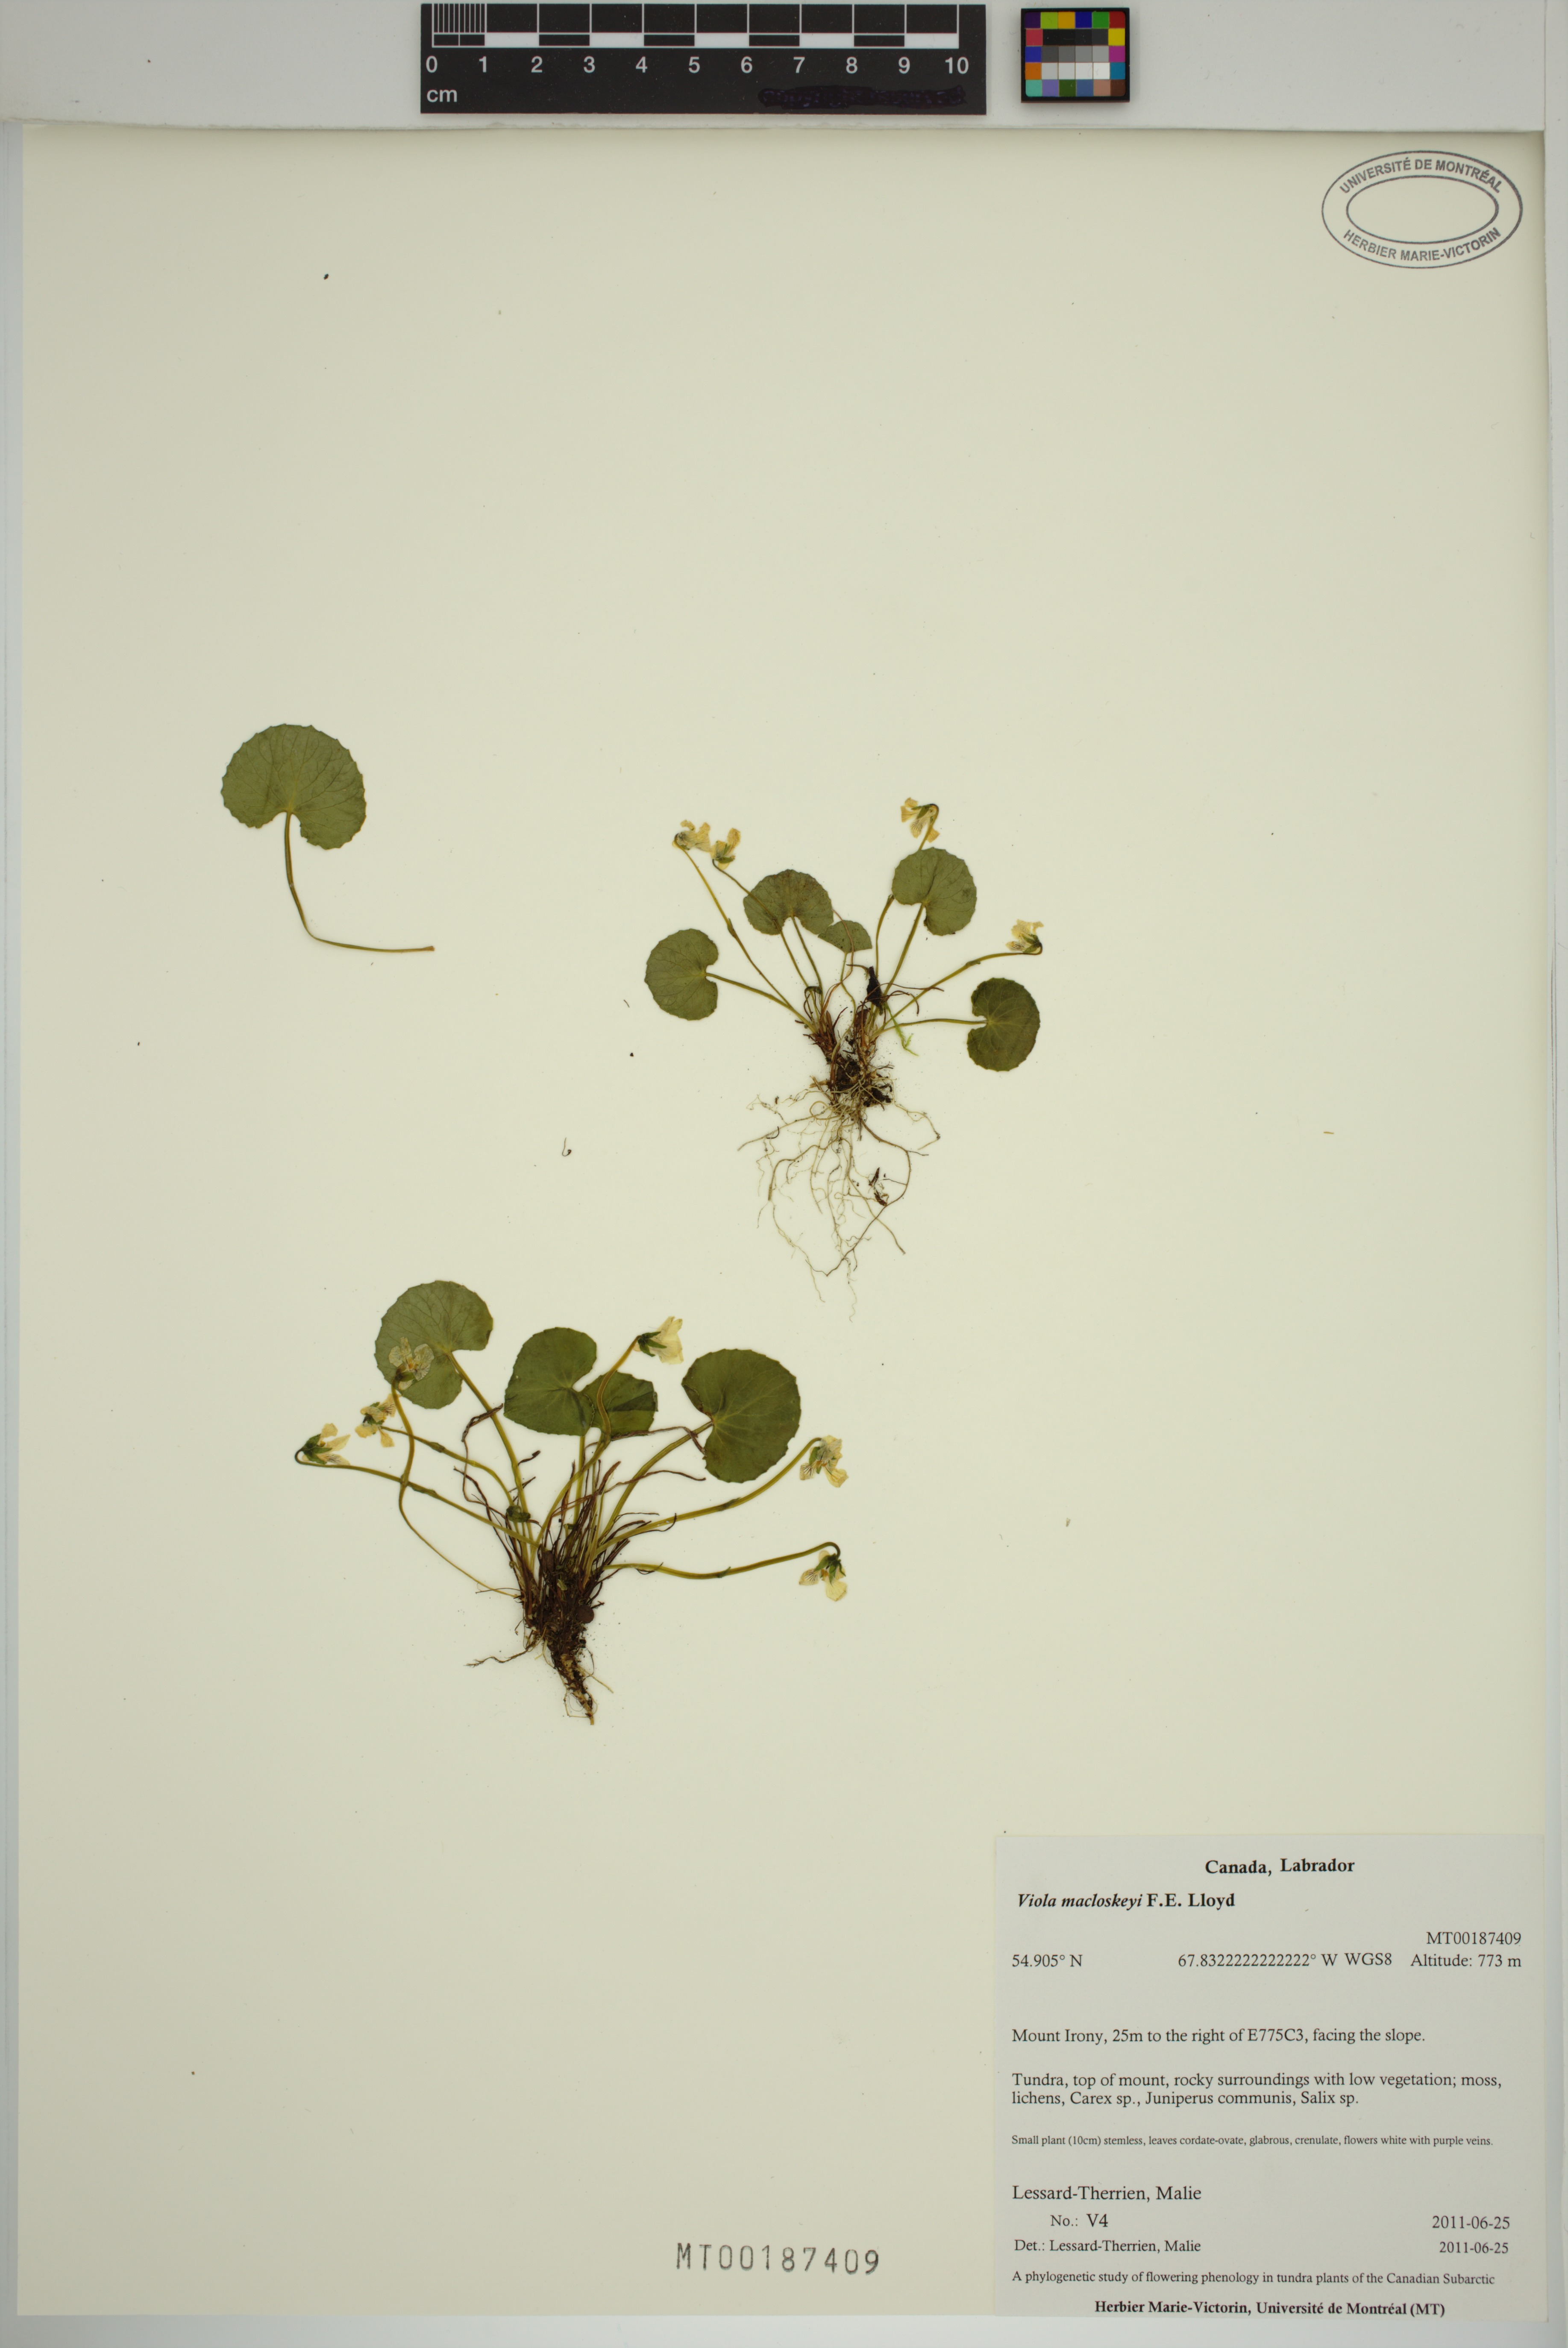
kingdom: Plantae
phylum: Tracheophyta
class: Magnoliopsida
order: Malpighiales
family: Violaceae
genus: Viola
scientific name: Viola macloskeyi
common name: Macloskey's violet
